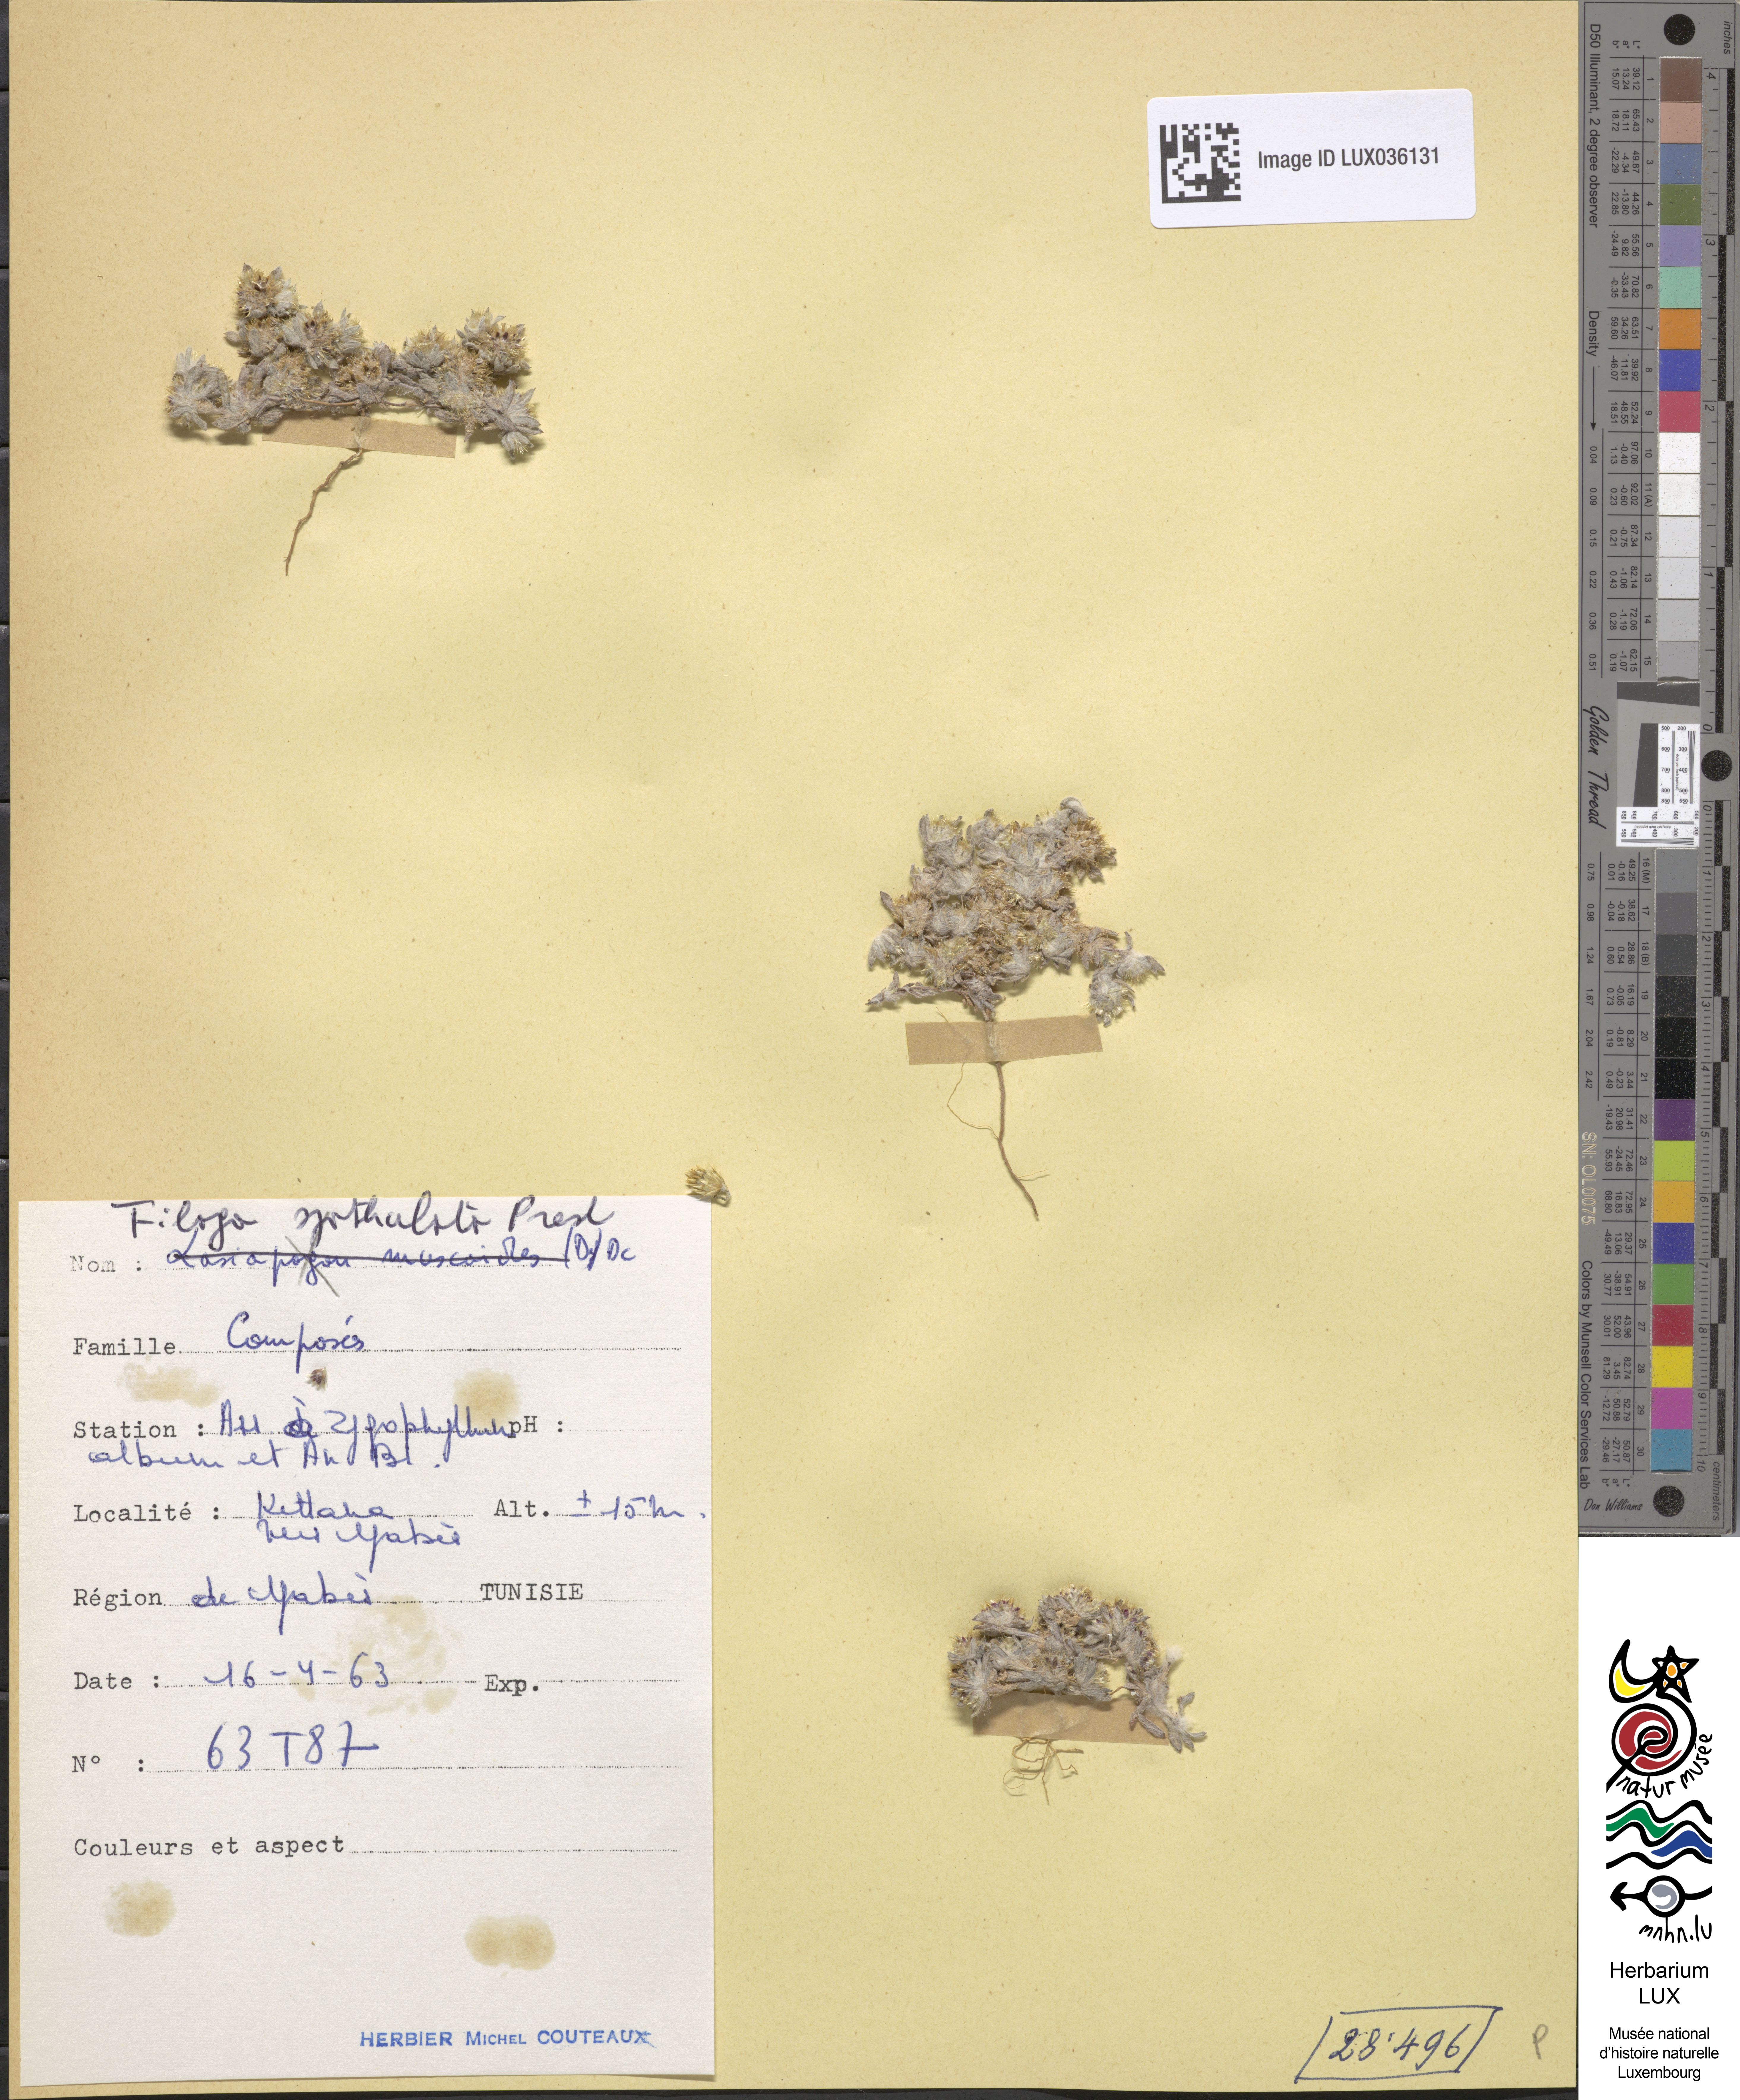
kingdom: Plantae
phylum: Tracheophyta
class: Magnoliopsida
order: Asterales
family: Asteraceae
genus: Filago
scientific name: Filago pyramidata
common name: Broad-leaved cudweed
